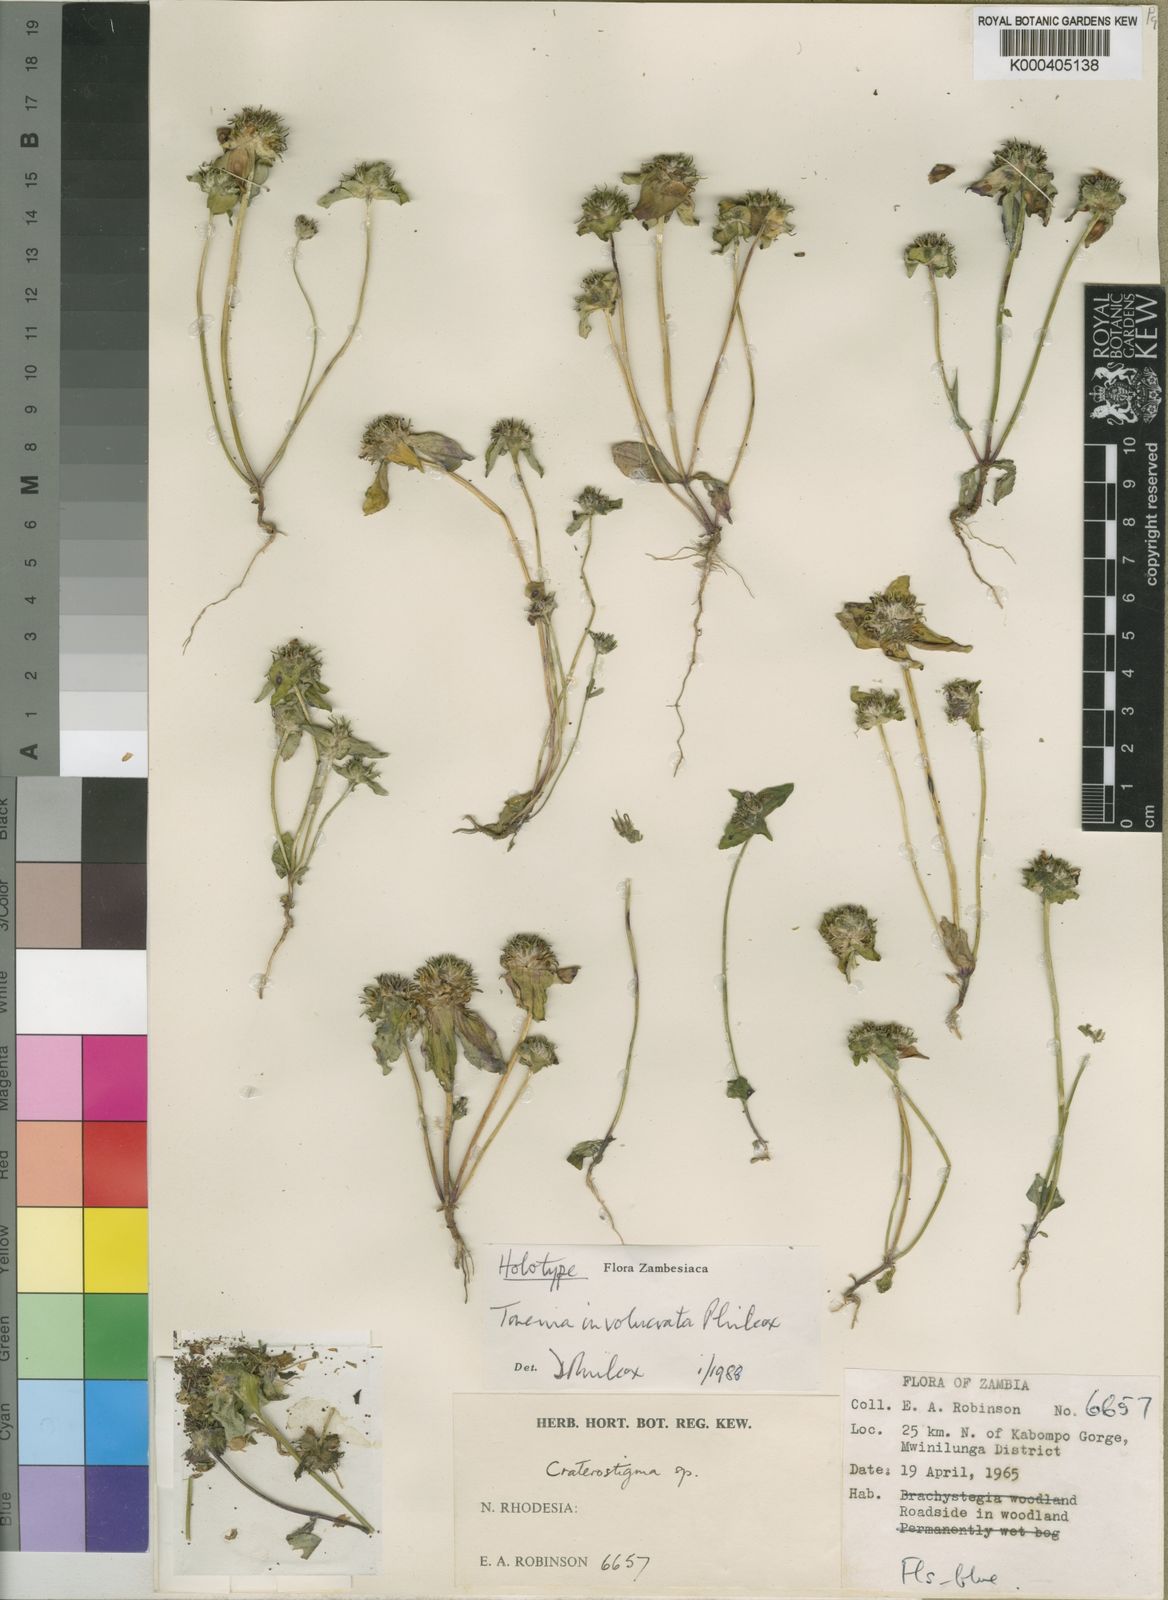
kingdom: Plantae
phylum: Tracheophyta
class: Magnoliopsida
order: Lamiales
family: Linderniaceae
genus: Crepidorhopalon
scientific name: Crepidorhopalon involucratus
